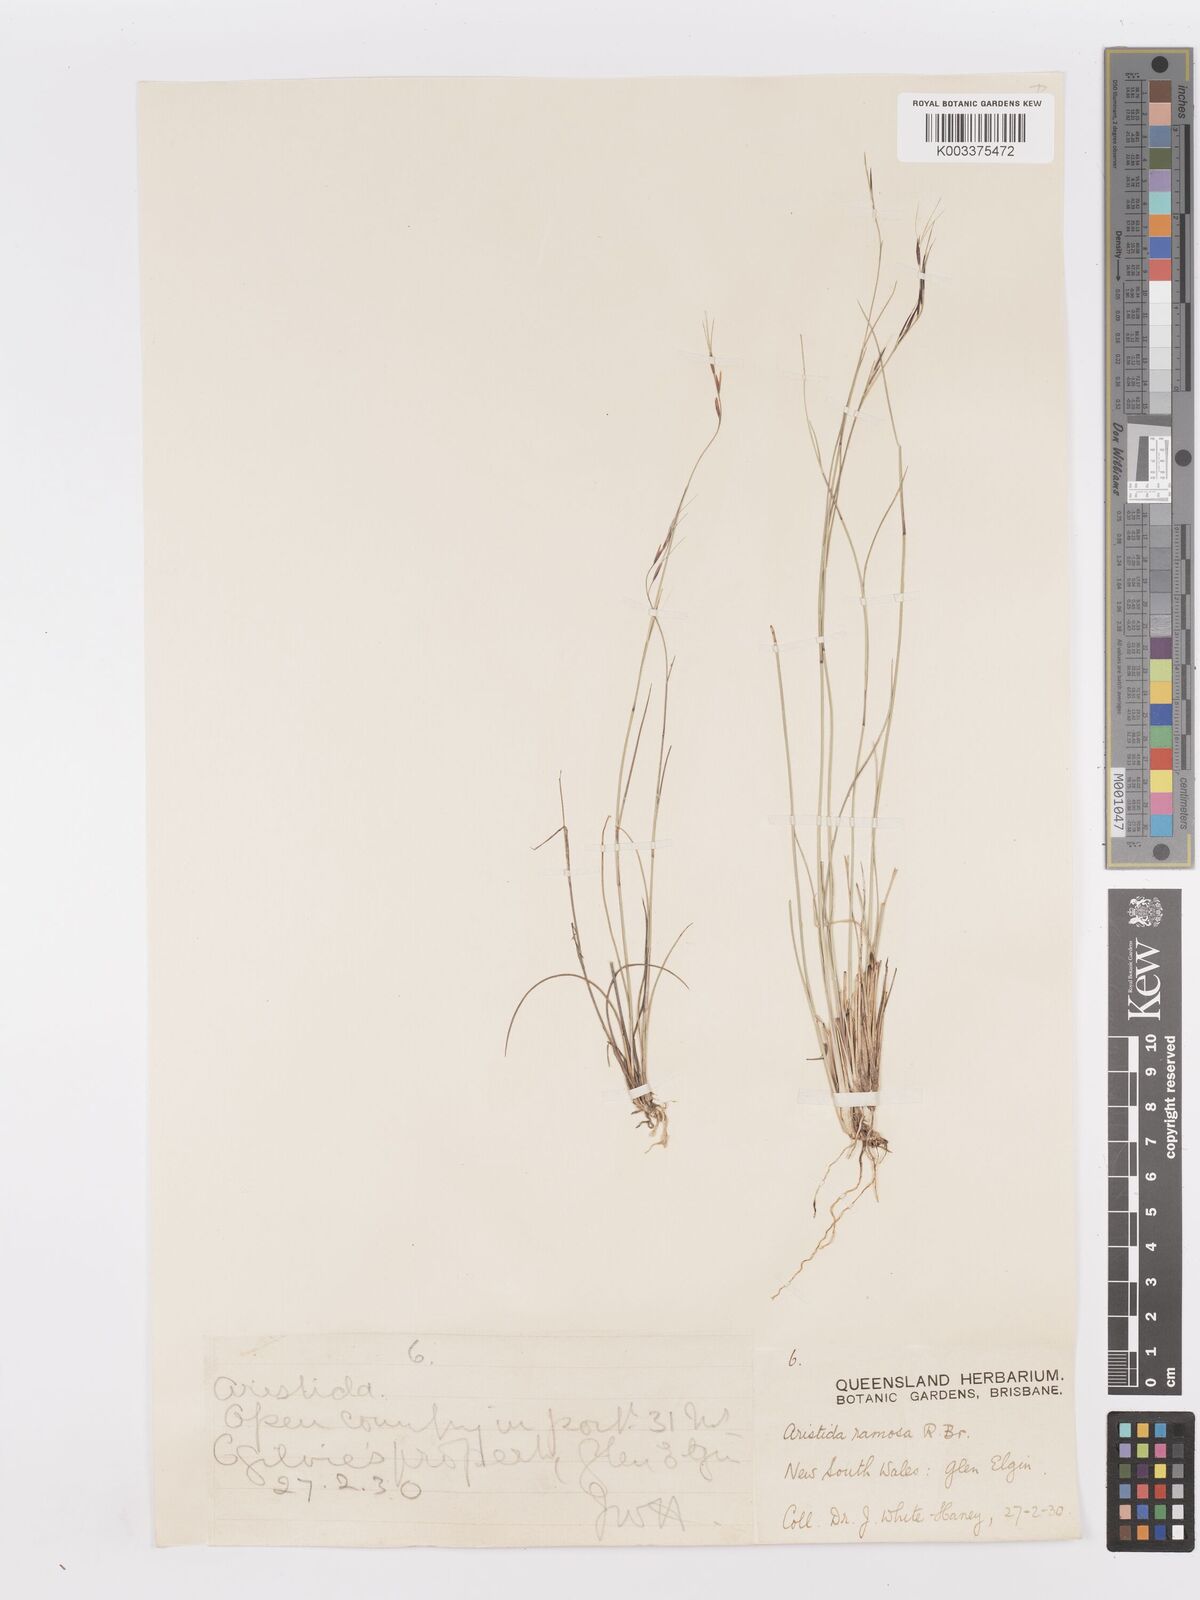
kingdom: Plantae
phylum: Tracheophyta
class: Liliopsida
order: Poales
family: Poaceae
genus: Aristida
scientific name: Aristida ramosa
